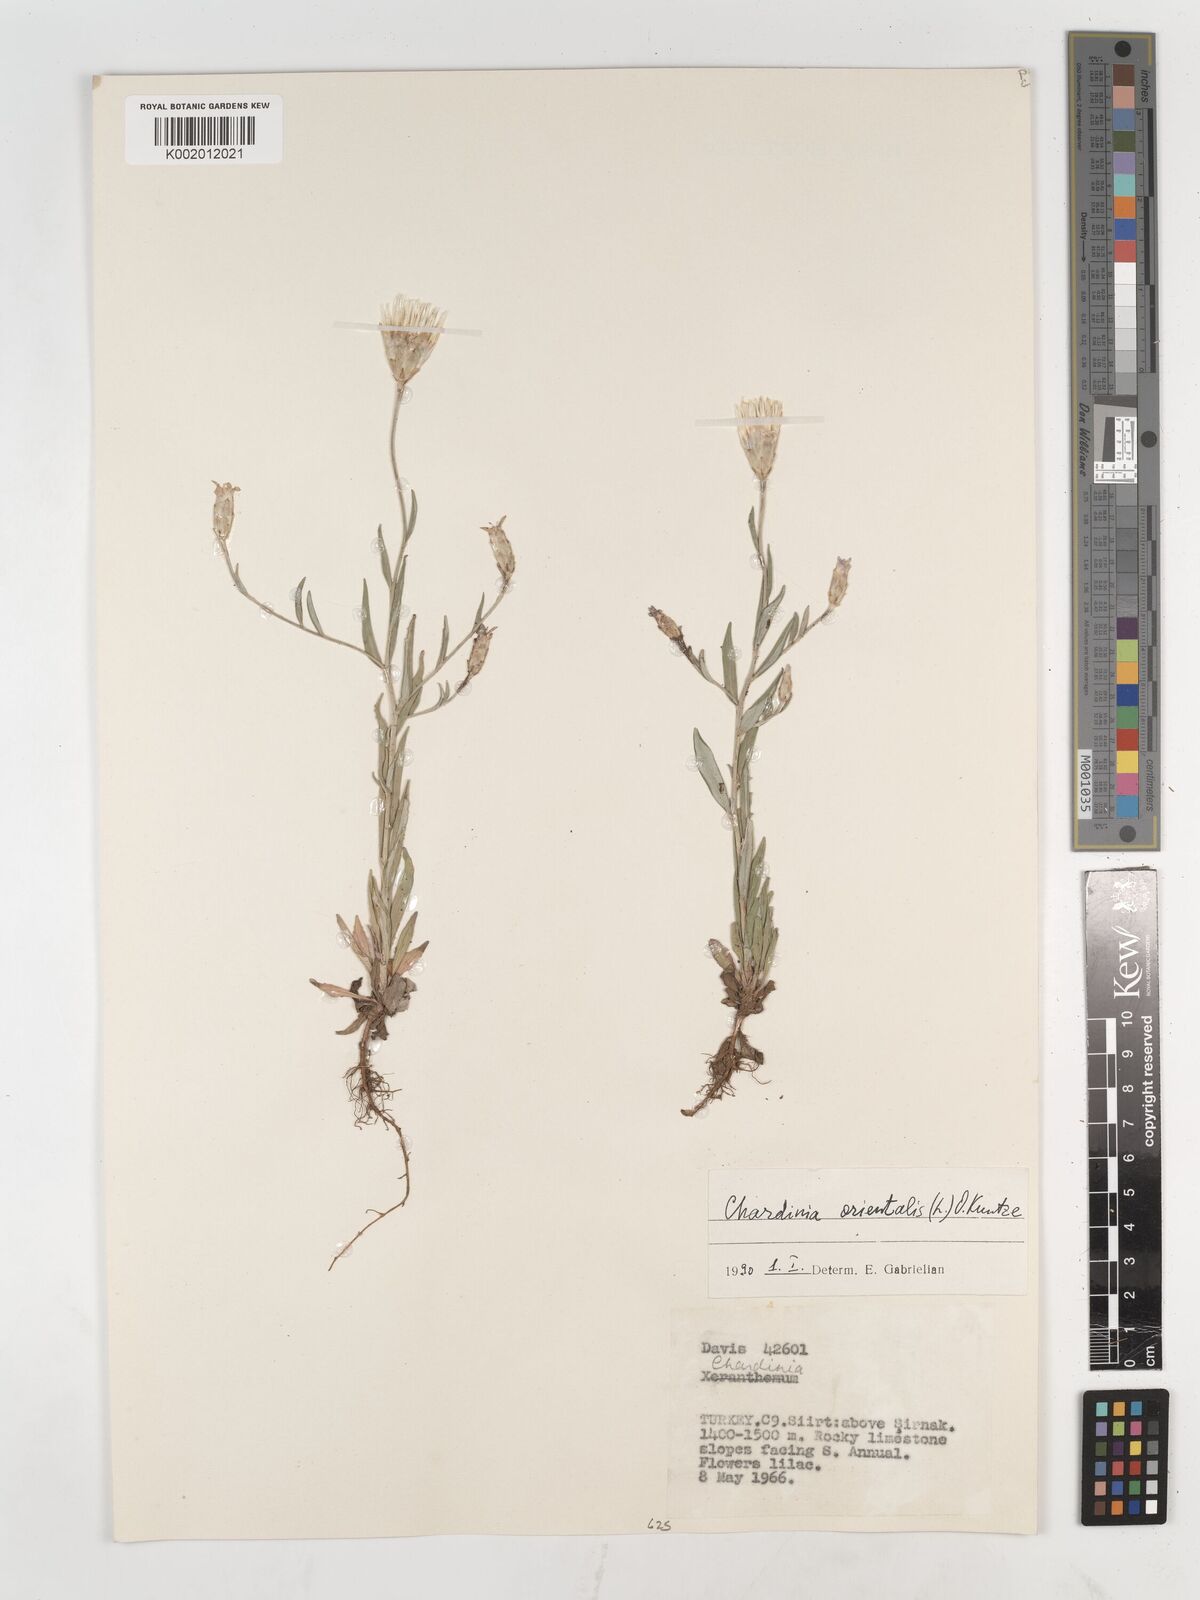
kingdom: Plantae
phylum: Tracheophyta
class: Magnoliopsida
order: Asterales
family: Asteraceae
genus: Chardinia
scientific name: Chardinia orientalis
